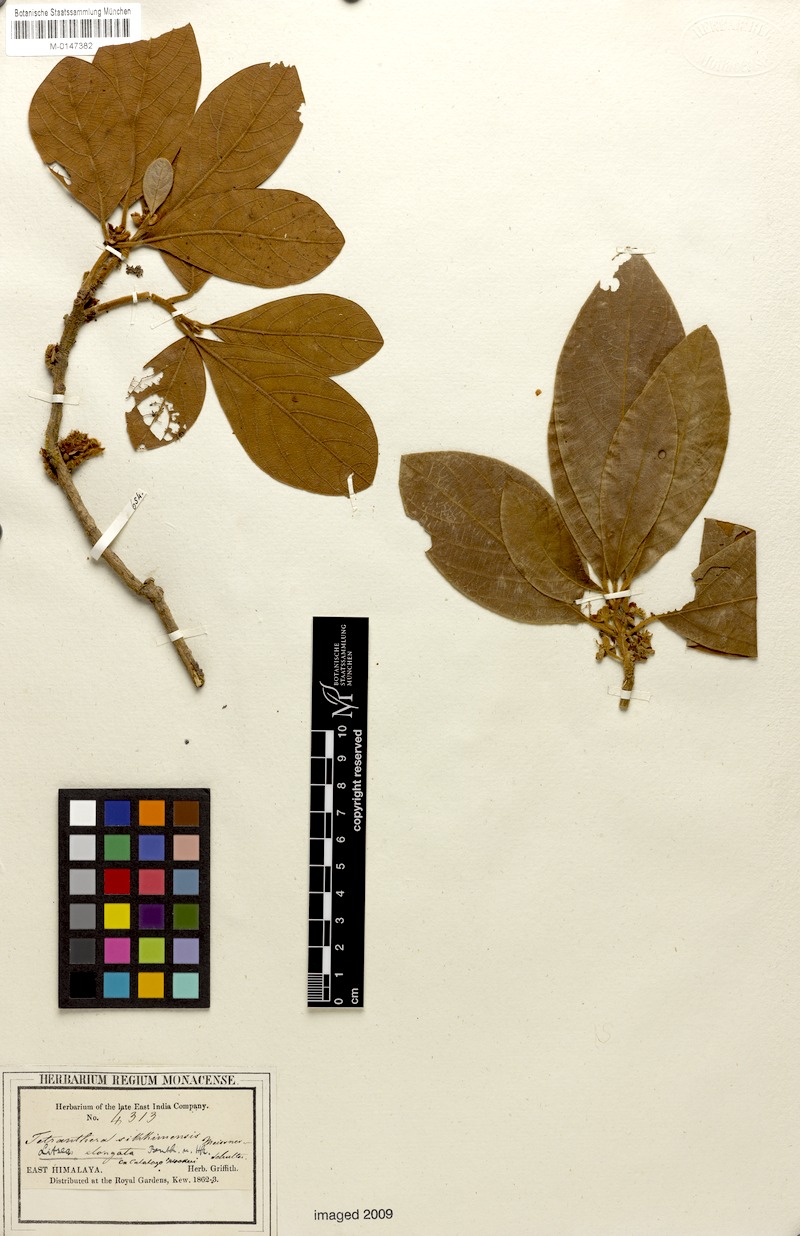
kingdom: Plantae
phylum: Tracheophyta
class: Magnoliopsida
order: Laurales
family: Lauraceae
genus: Litsea
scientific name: Litsea elongata
